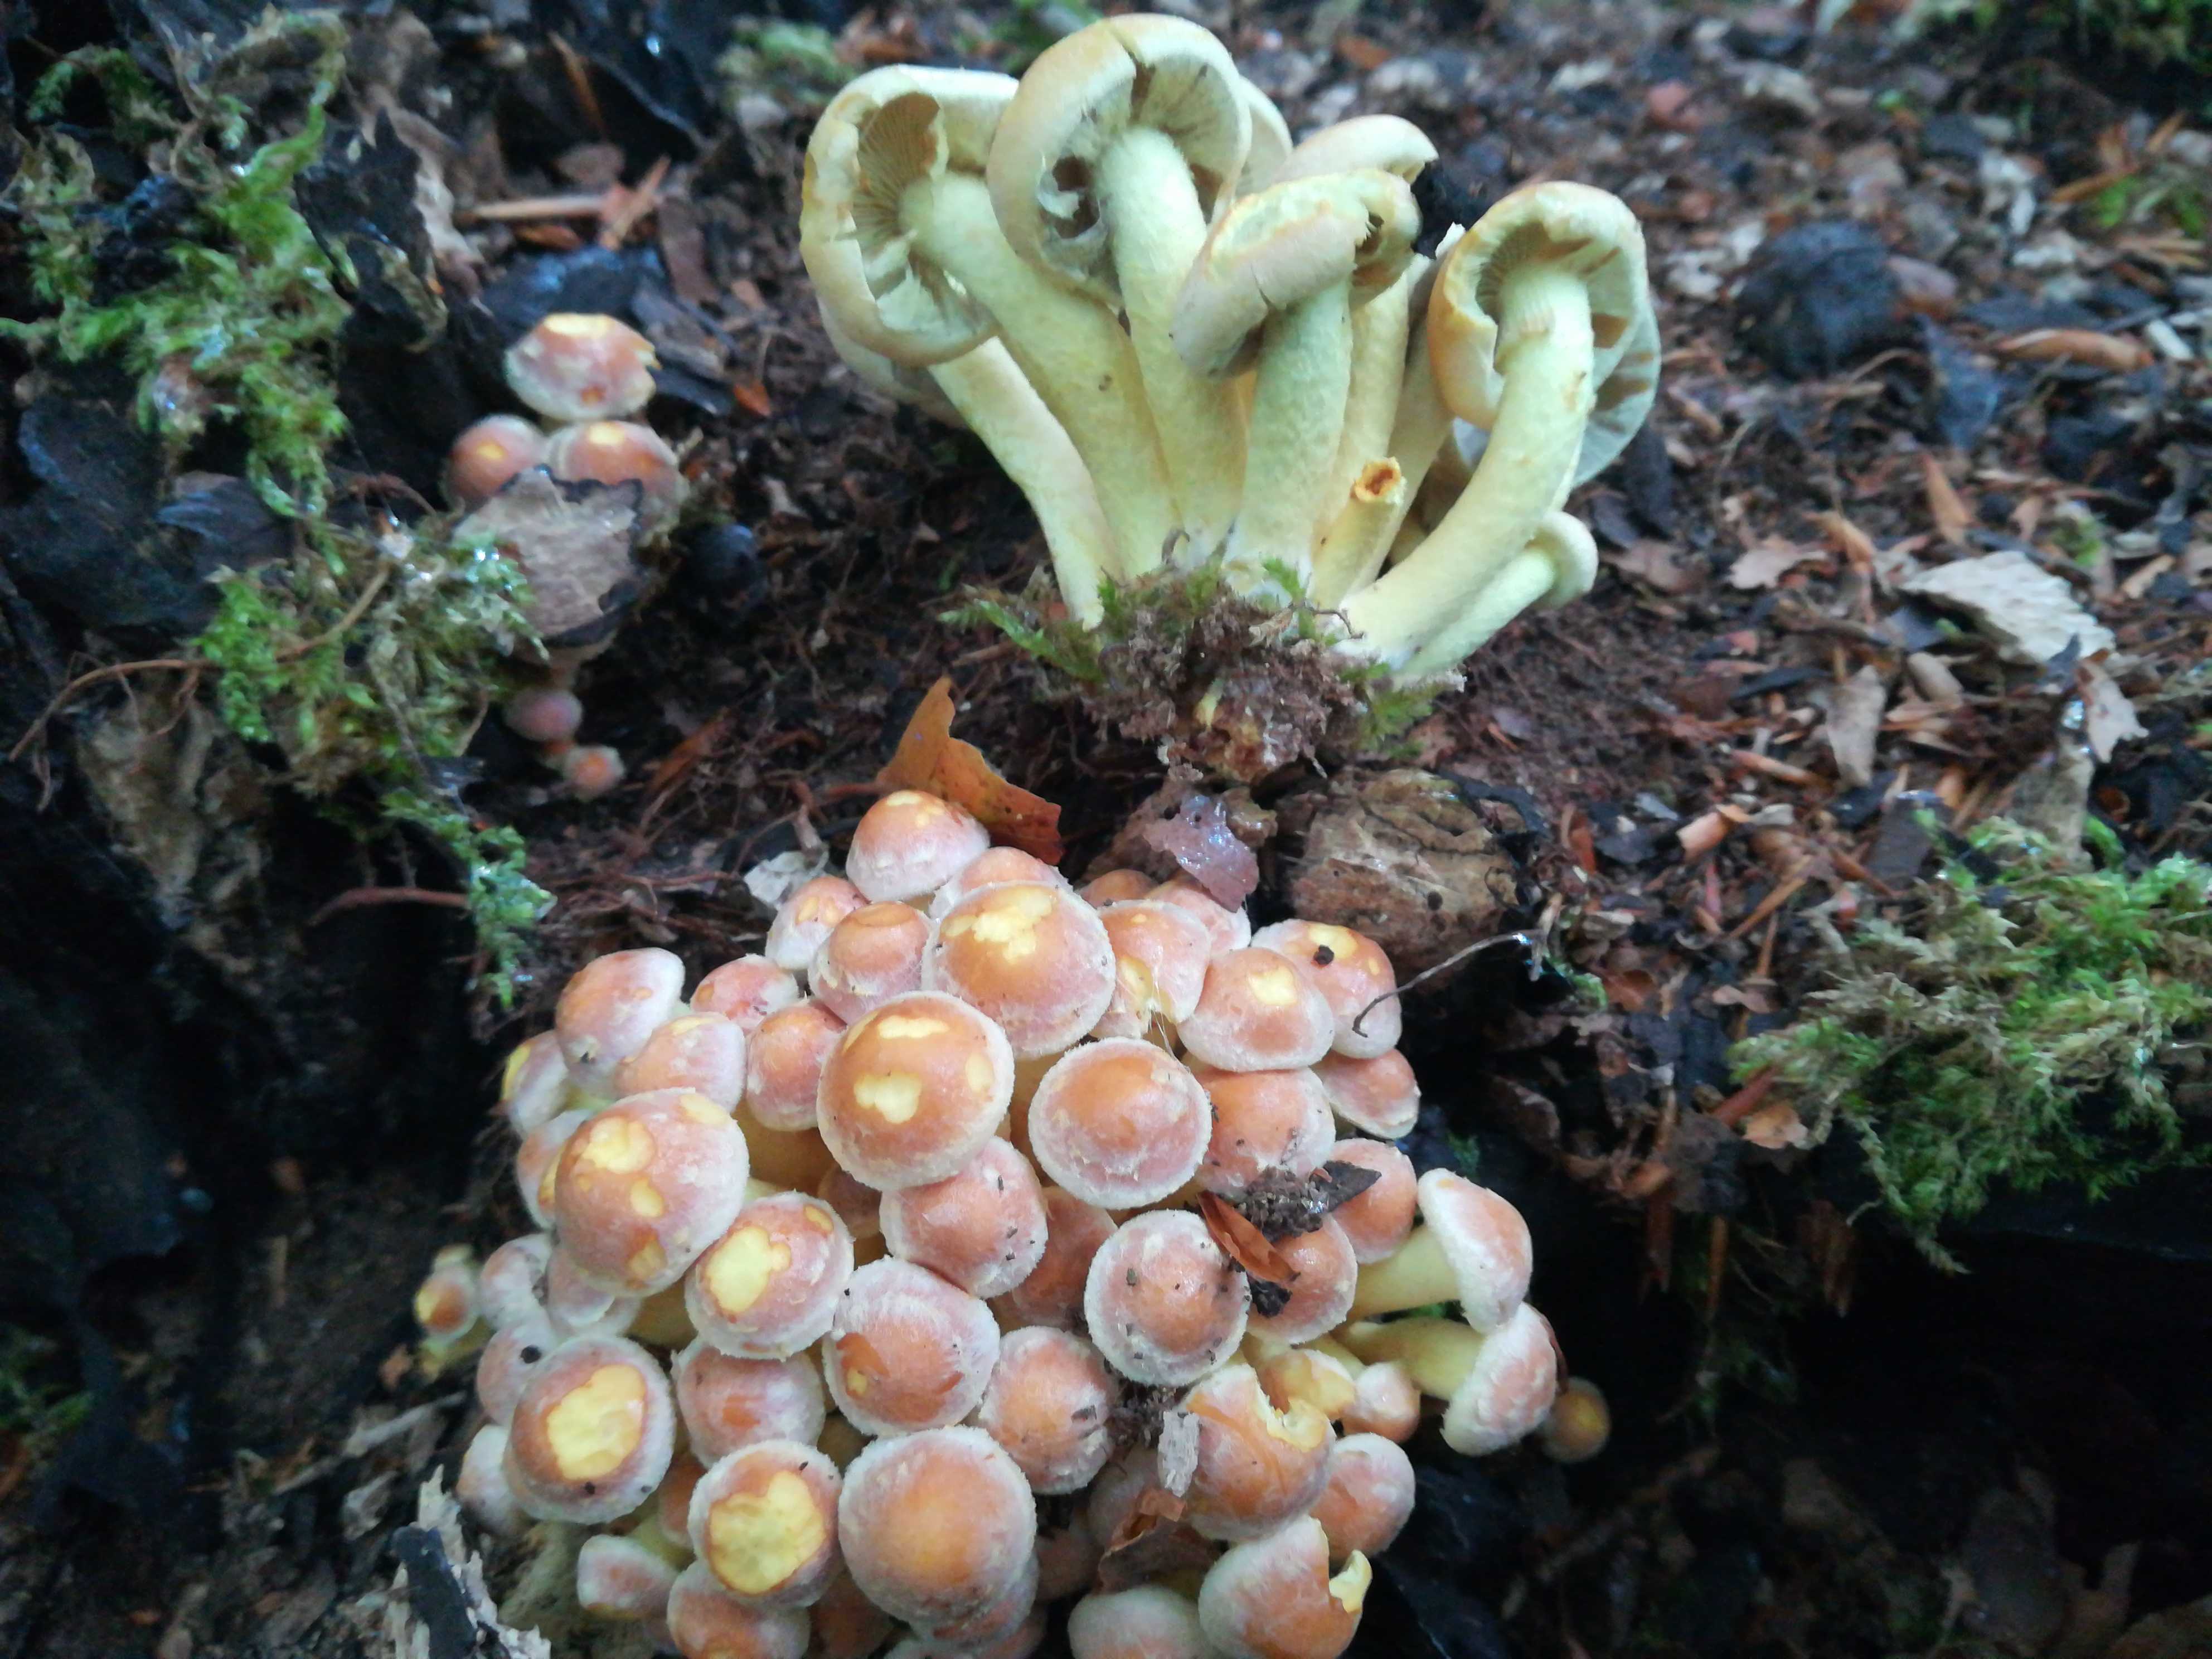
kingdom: Fungi
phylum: Basidiomycota
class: Agaricomycetes
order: Agaricales
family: Strophariaceae
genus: Hypholoma
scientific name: Hypholoma fasciculare
